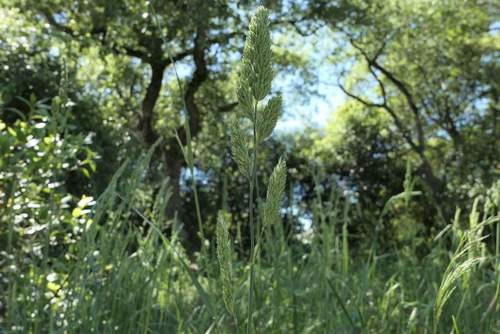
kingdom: Plantae
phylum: Tracheophyta
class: Liliopsida
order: Poales
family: Poaceae
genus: Dactylis
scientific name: Dactylis glomerata
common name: Orchardgrass
